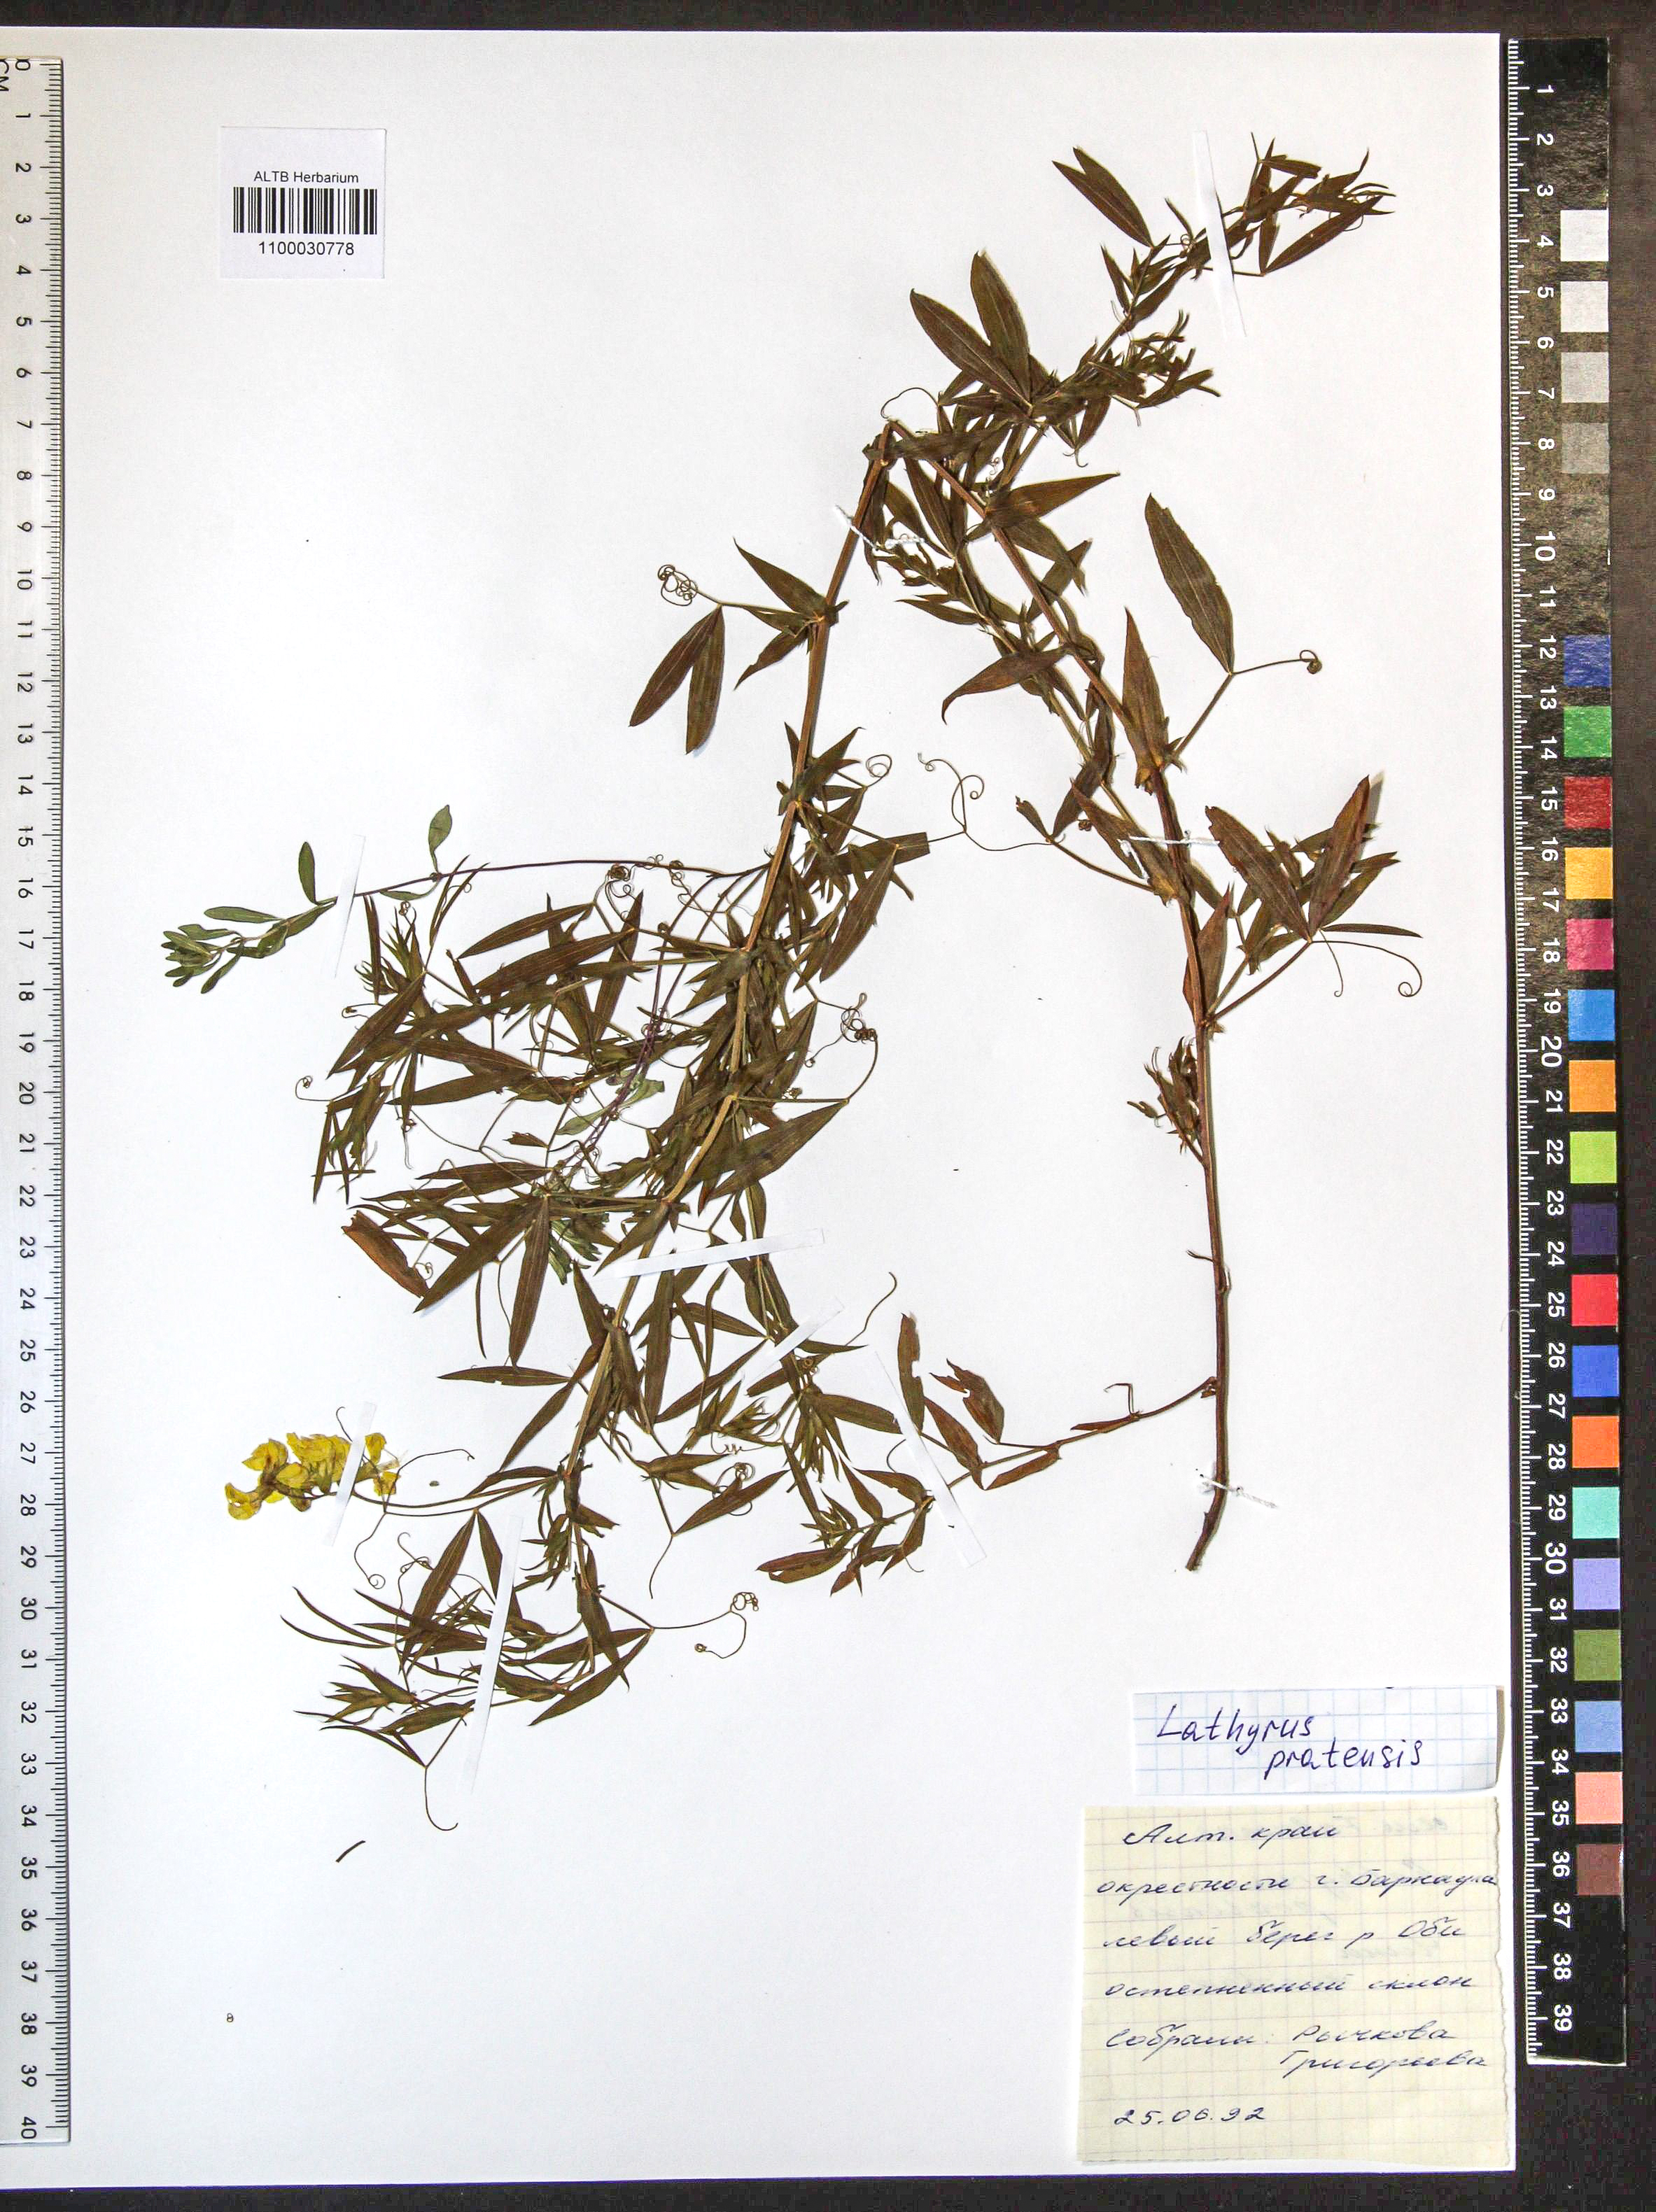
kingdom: Plantae
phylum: Tracheophyta
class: Magnoliopsida
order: Fabales
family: Fabaceae
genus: Lathyrus
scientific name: Lathyrus pratensis
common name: Meadow vetchling
